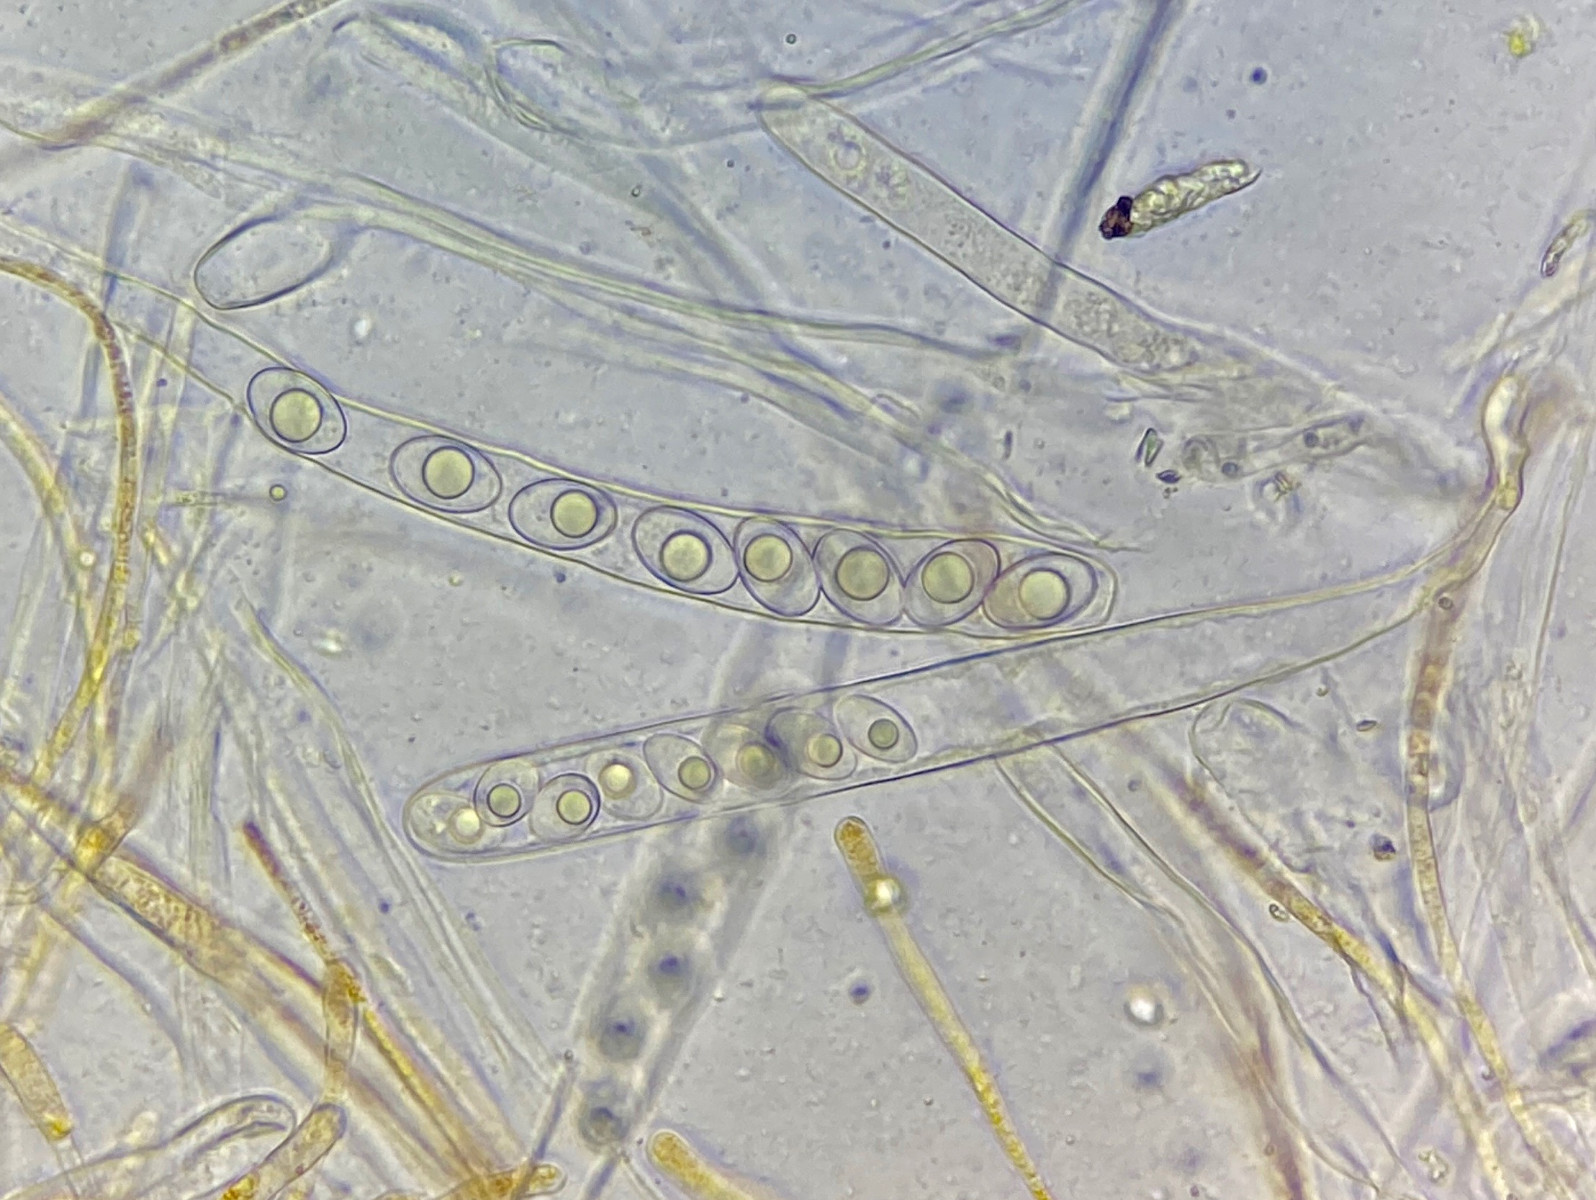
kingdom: Fungi
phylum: Ascomycota
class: Pezizomycetes
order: Pezizales
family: Pyronemataceae
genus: Inermisia
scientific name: Inermisia gyalectoides
